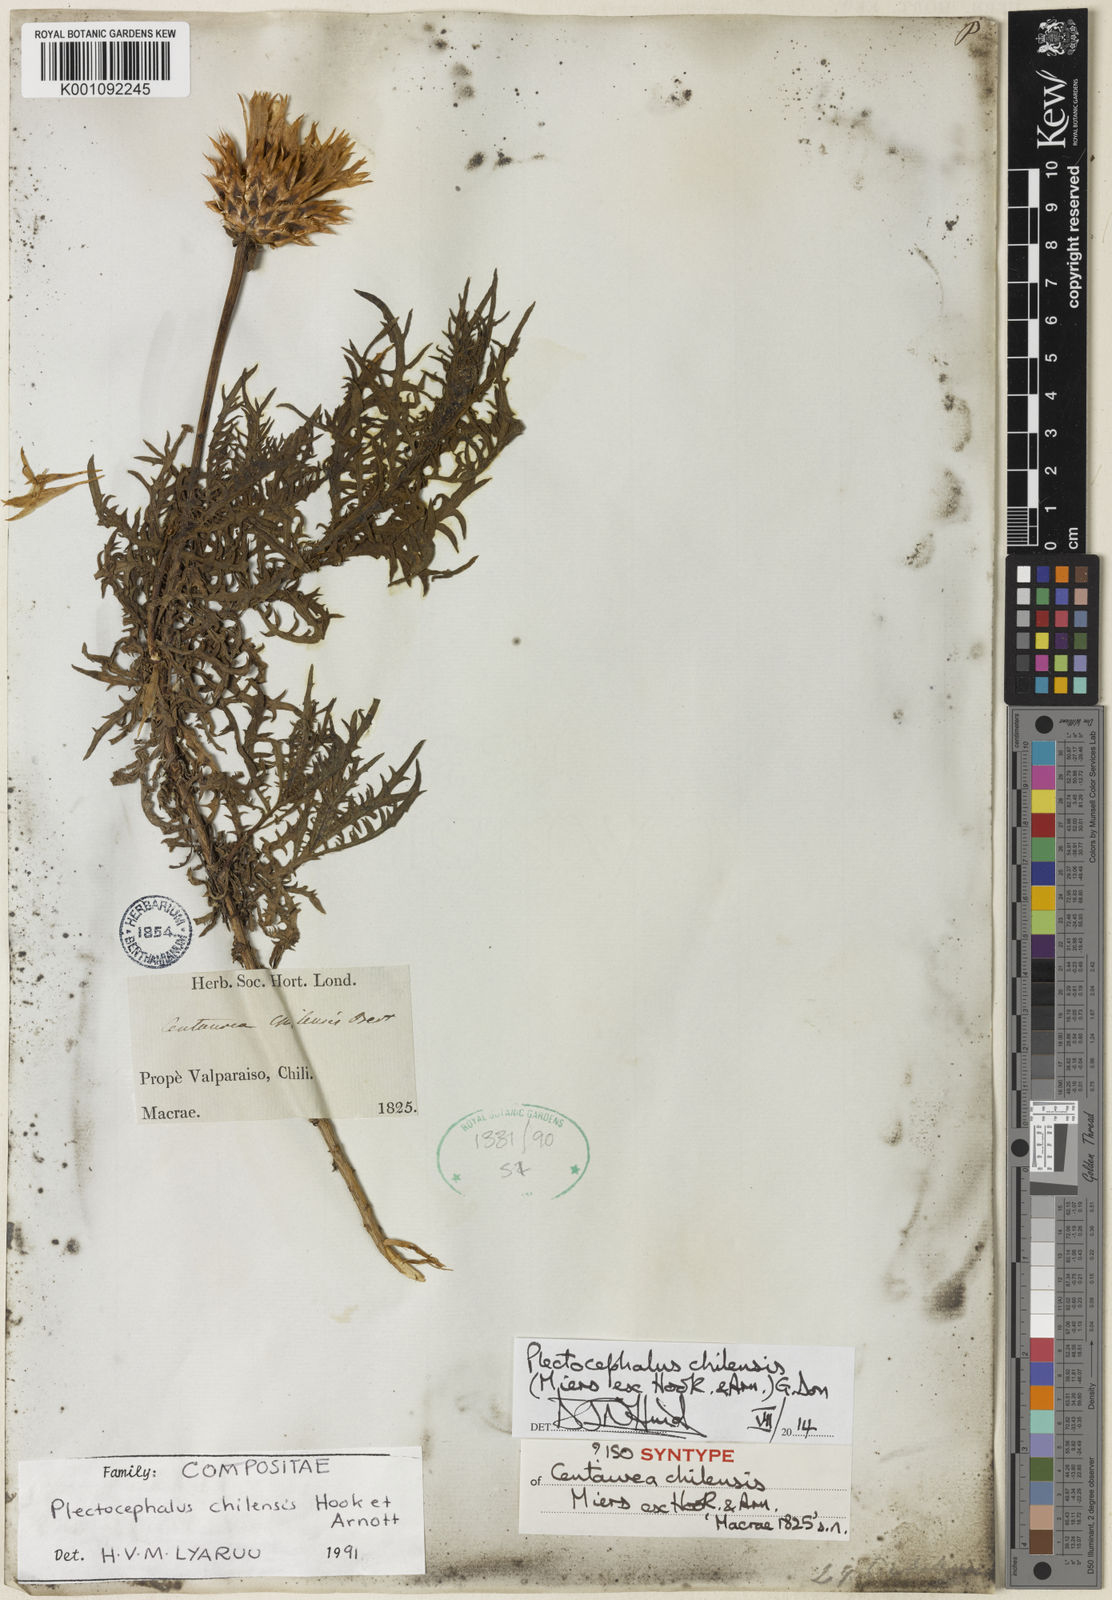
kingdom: Plantae
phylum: Tracheophyta
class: Magnoliopsida
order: Asterales
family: Asteraceae
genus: Plectocephalus
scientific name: Plectocephalus chilensis
